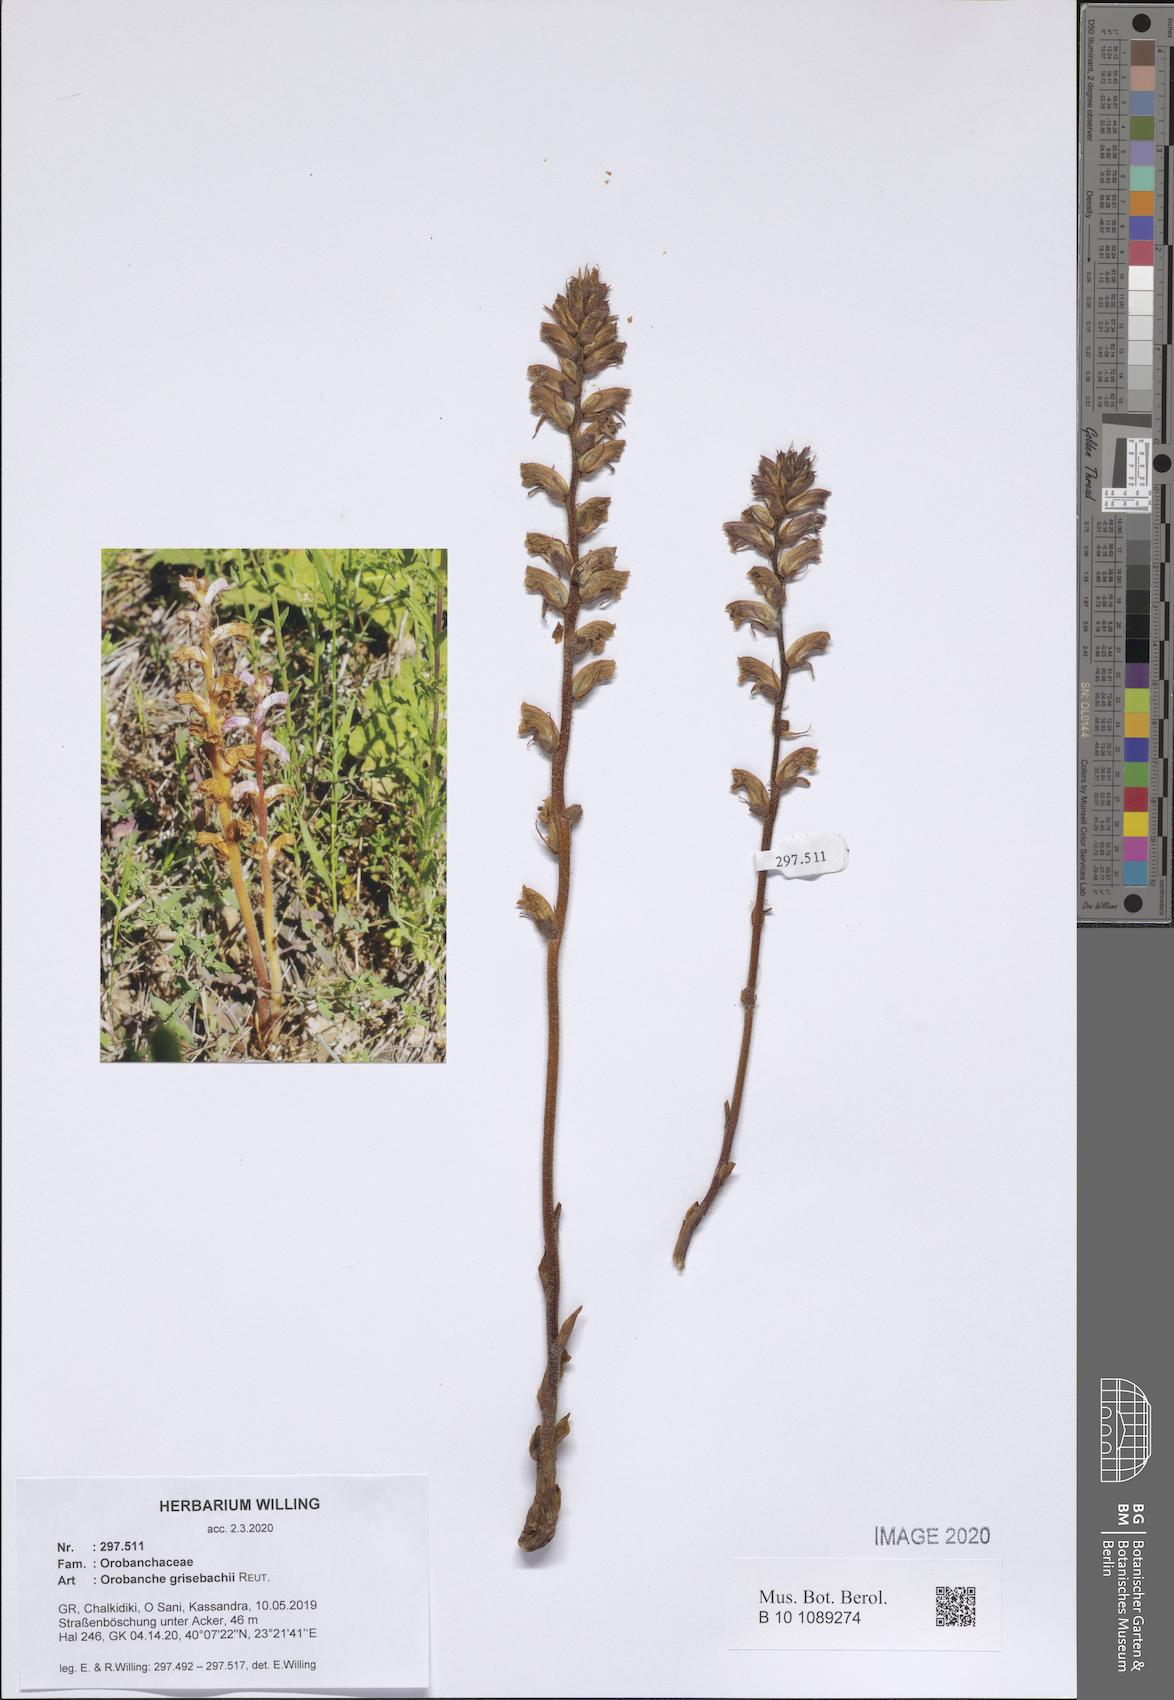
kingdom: Plantae
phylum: Tracheophyta
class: Magnoliopsida
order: Lamiales
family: Orobanchaceae
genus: Orobanche
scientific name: Orobanche grisebachii
